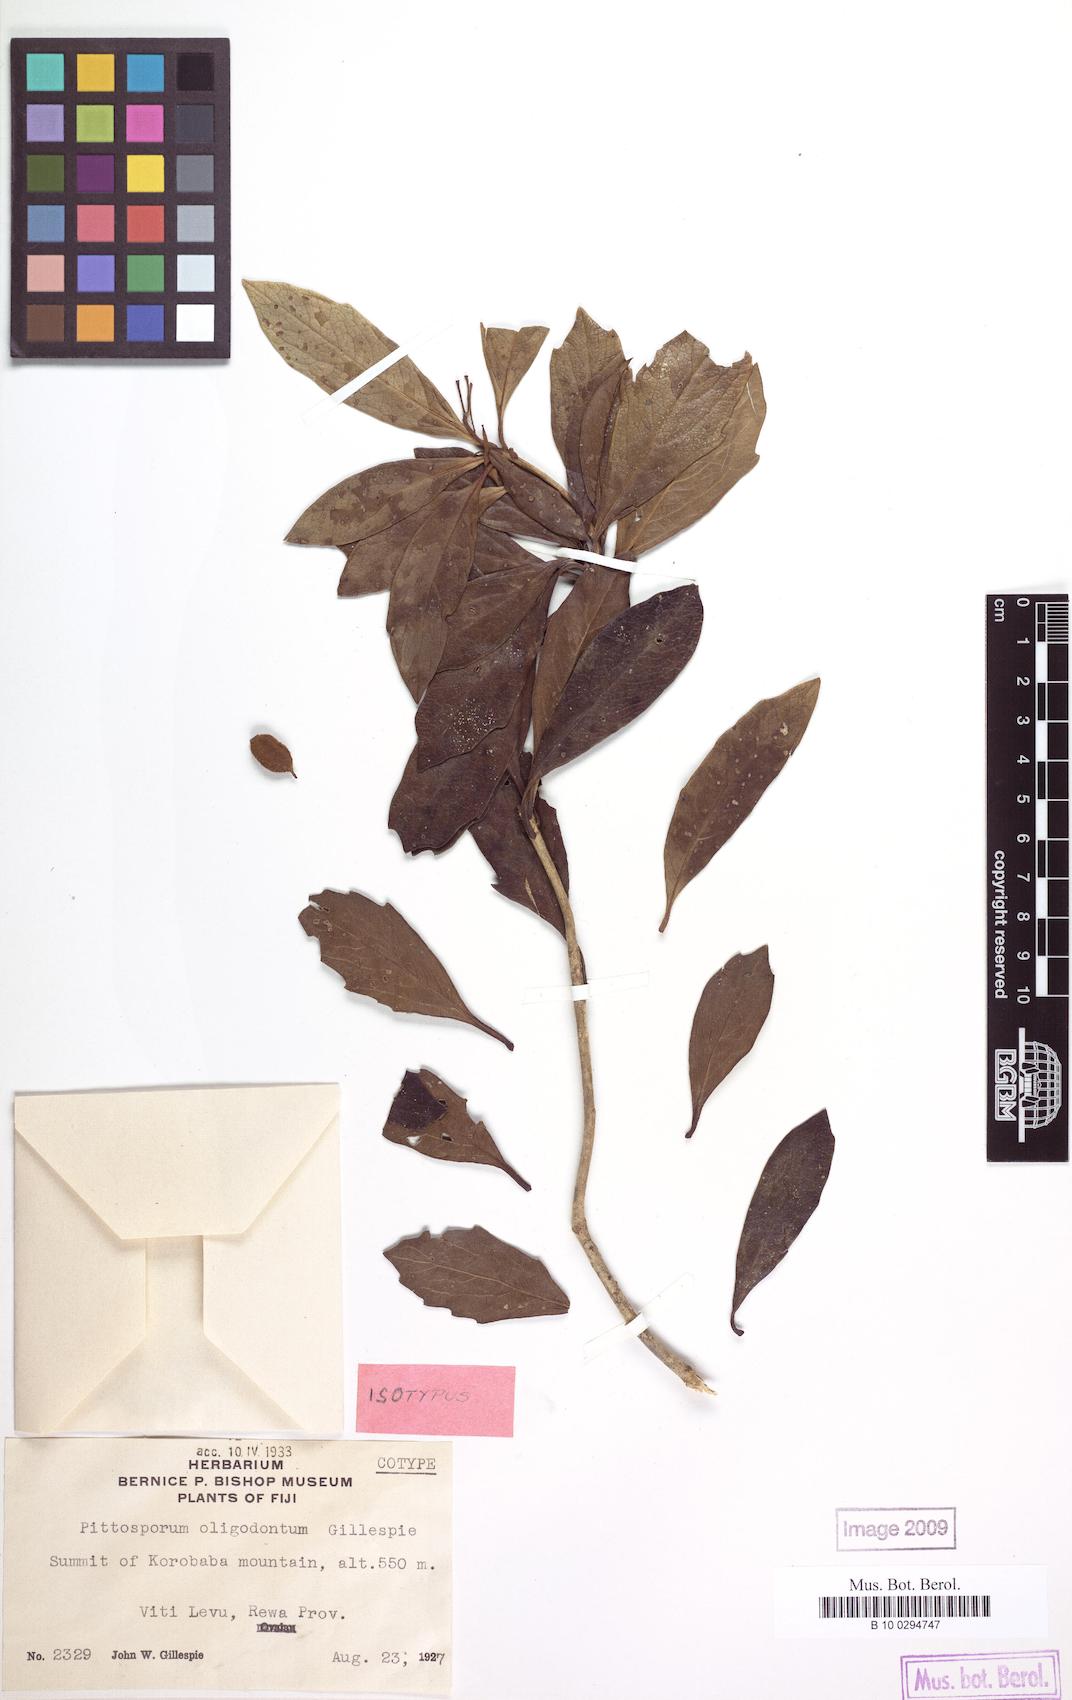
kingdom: Plantae
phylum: Tracheophyta
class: Magnoliopsida
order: Apiales
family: Pittosporaceae
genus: Pittosporum
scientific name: Pittosporum oligodontum
